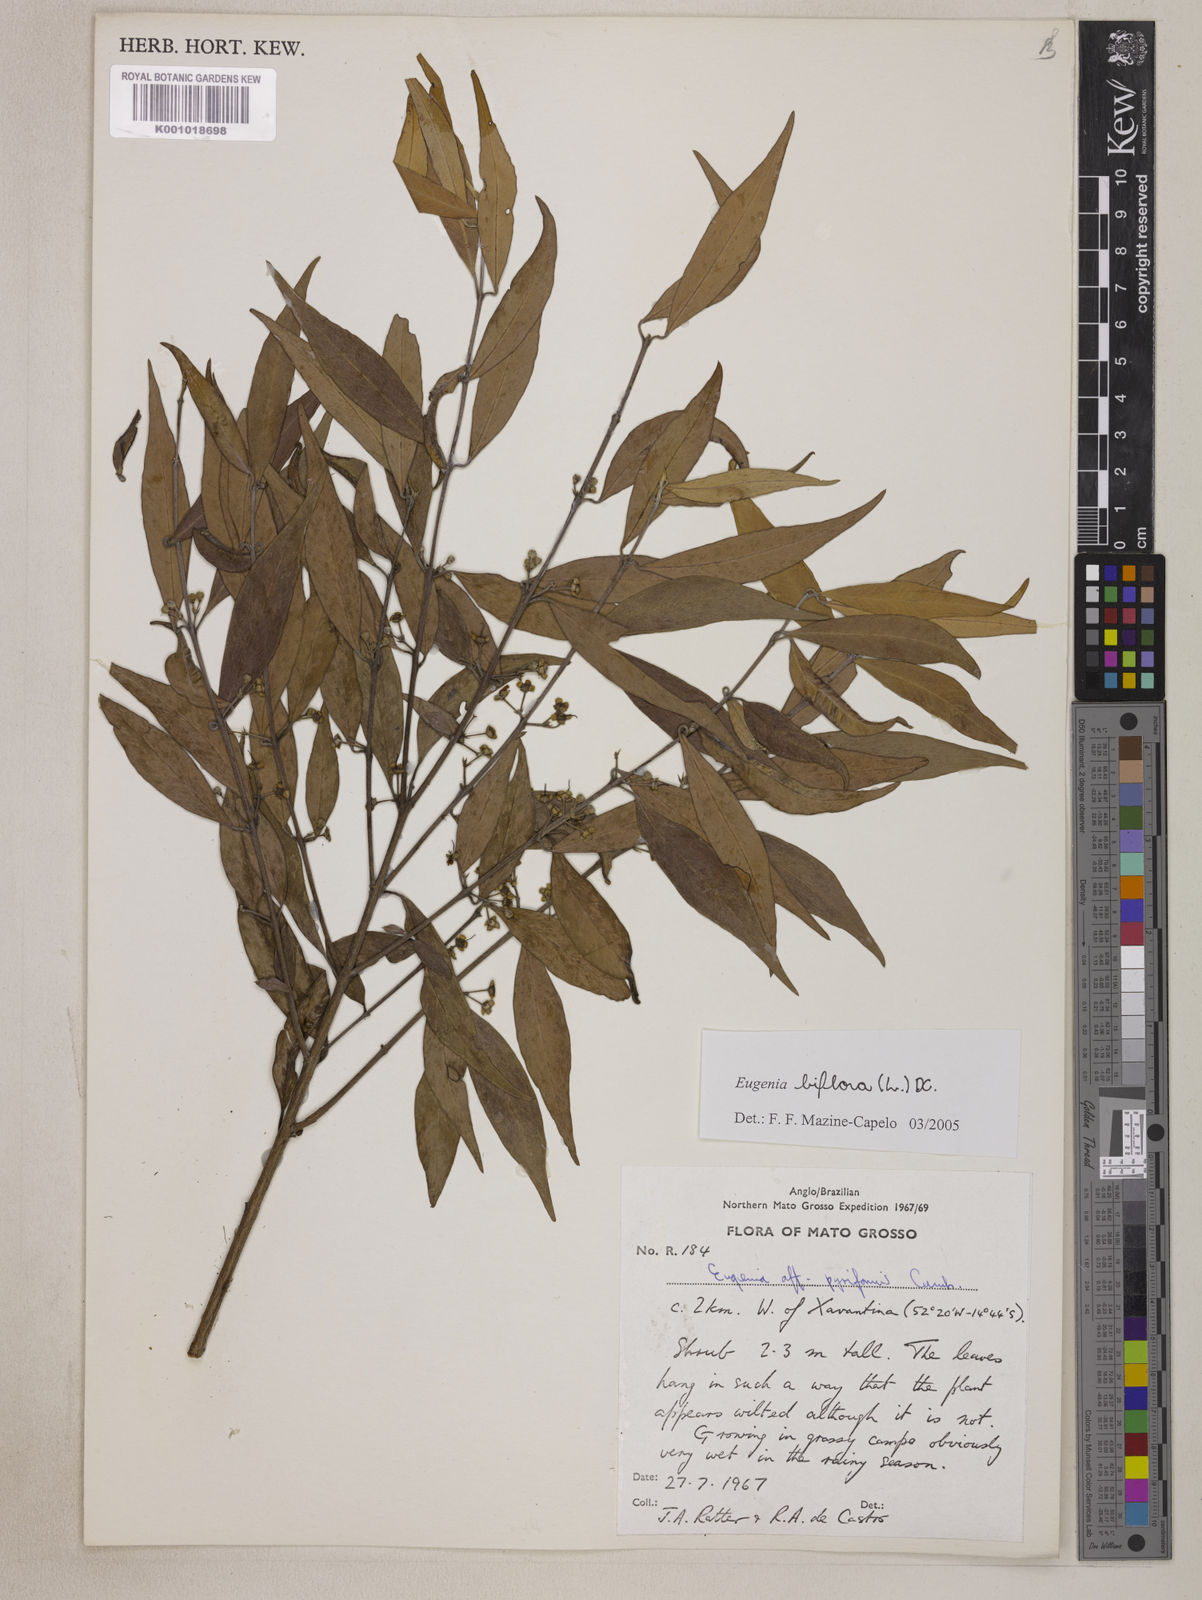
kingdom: Plantae
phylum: Tracheophyta
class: Magnoliopsida
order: Myrtales
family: Myrtaceae
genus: Eugenia
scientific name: Eugenia biflora
